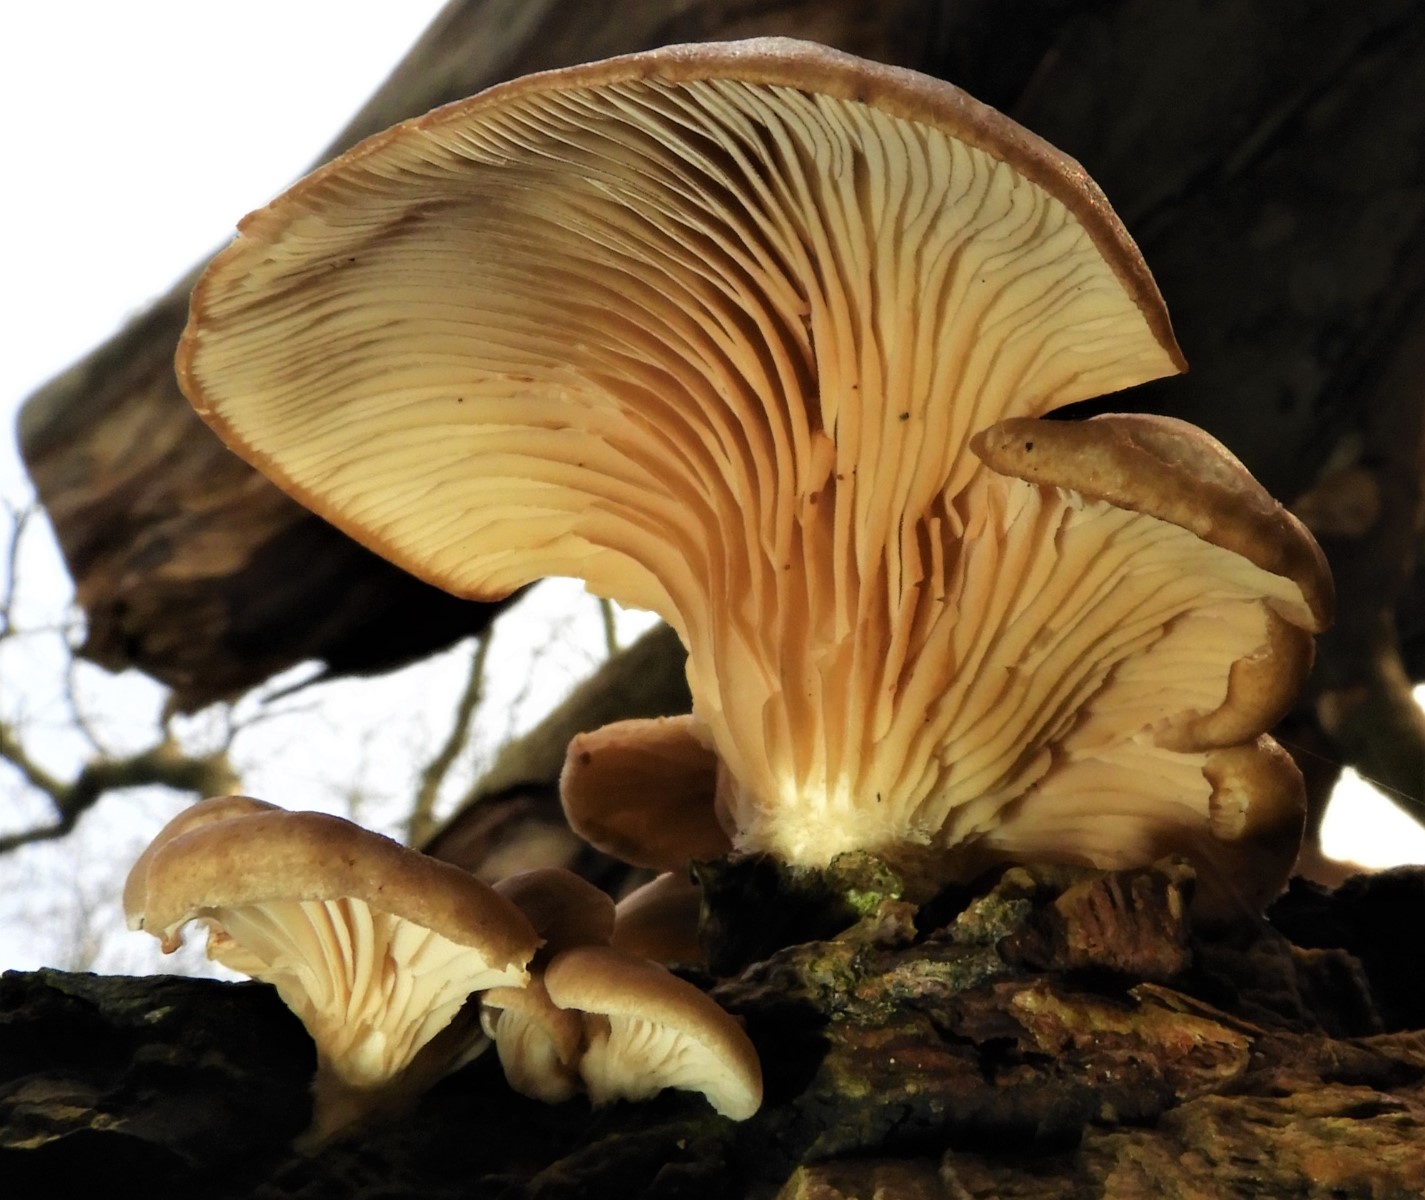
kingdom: Fungi
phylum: Basidiomycota
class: Agaricomycetes
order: Agaricales
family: Pleurotaceae
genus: Pleurotus
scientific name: Pleurotus ostreatus
